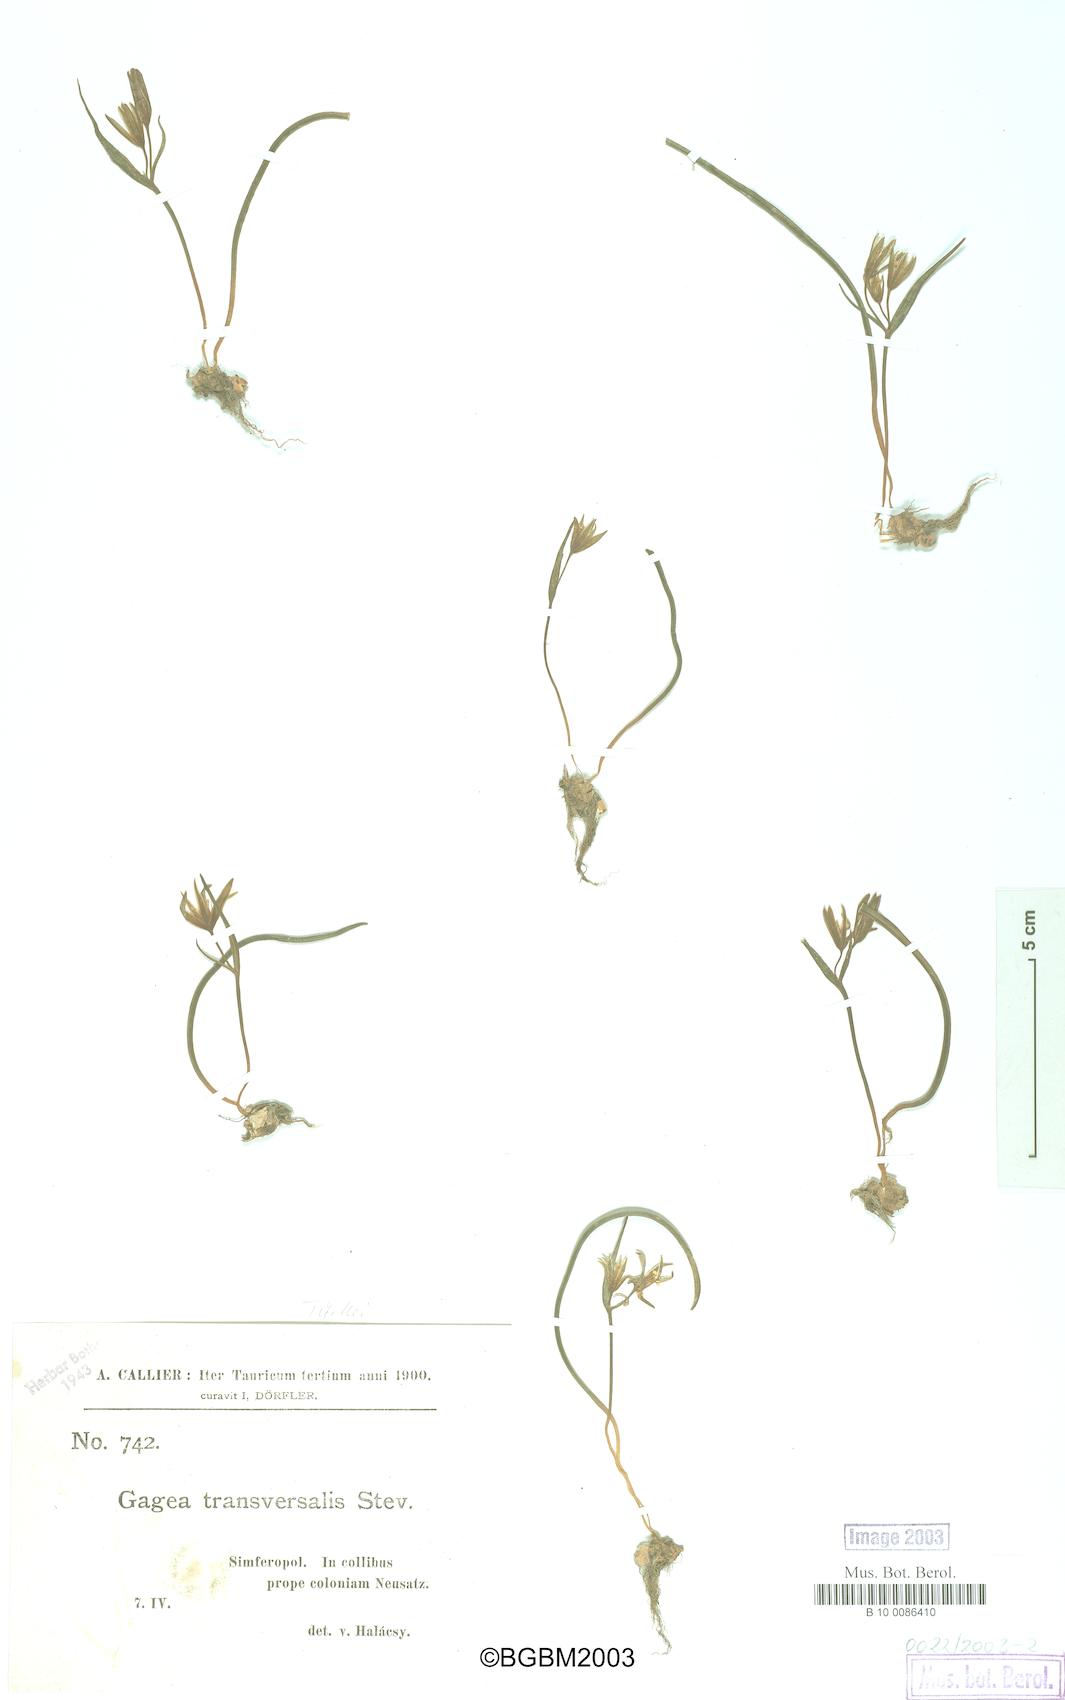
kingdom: Plantae
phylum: Tracheophyta
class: Liliopsida
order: Liliales
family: Liliaceae
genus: Gagea
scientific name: Gagea transversalis
